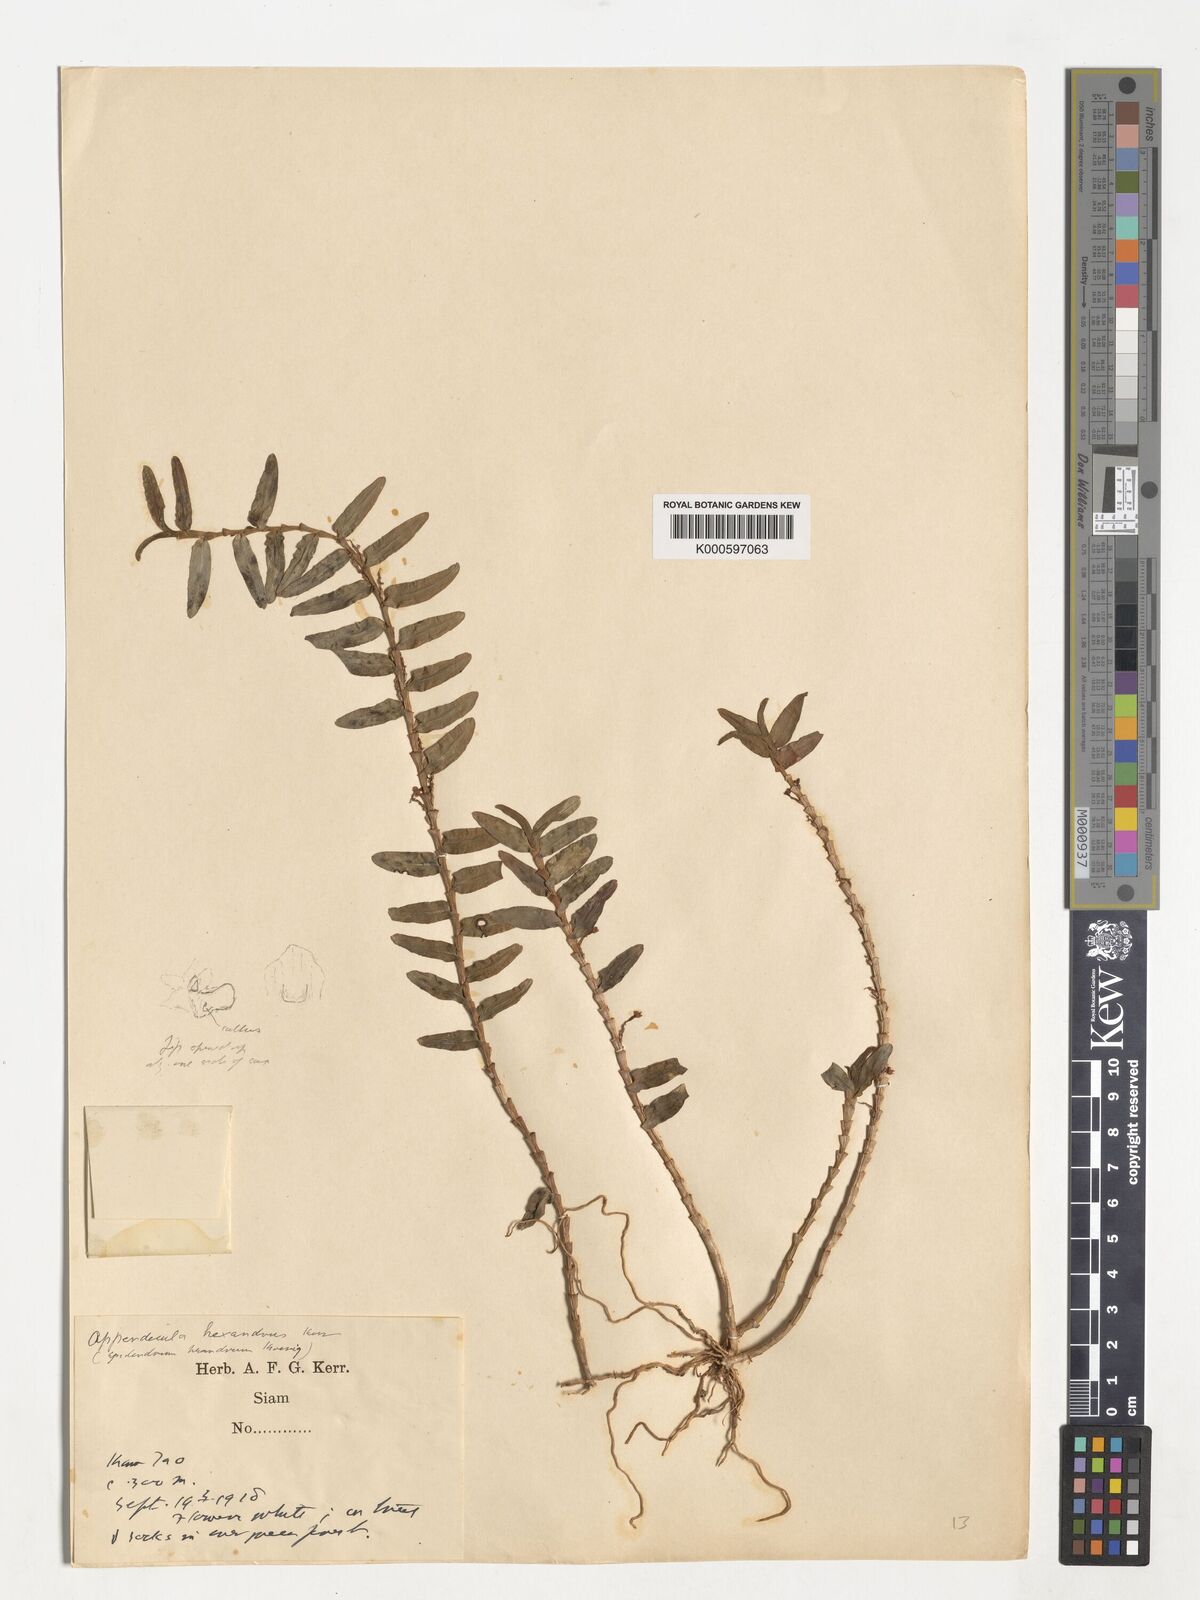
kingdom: Plantae
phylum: Tracheophyta
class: Liliopsida
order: Asparagales
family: Orchidaceae
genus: Appendicula
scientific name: Appendicula
